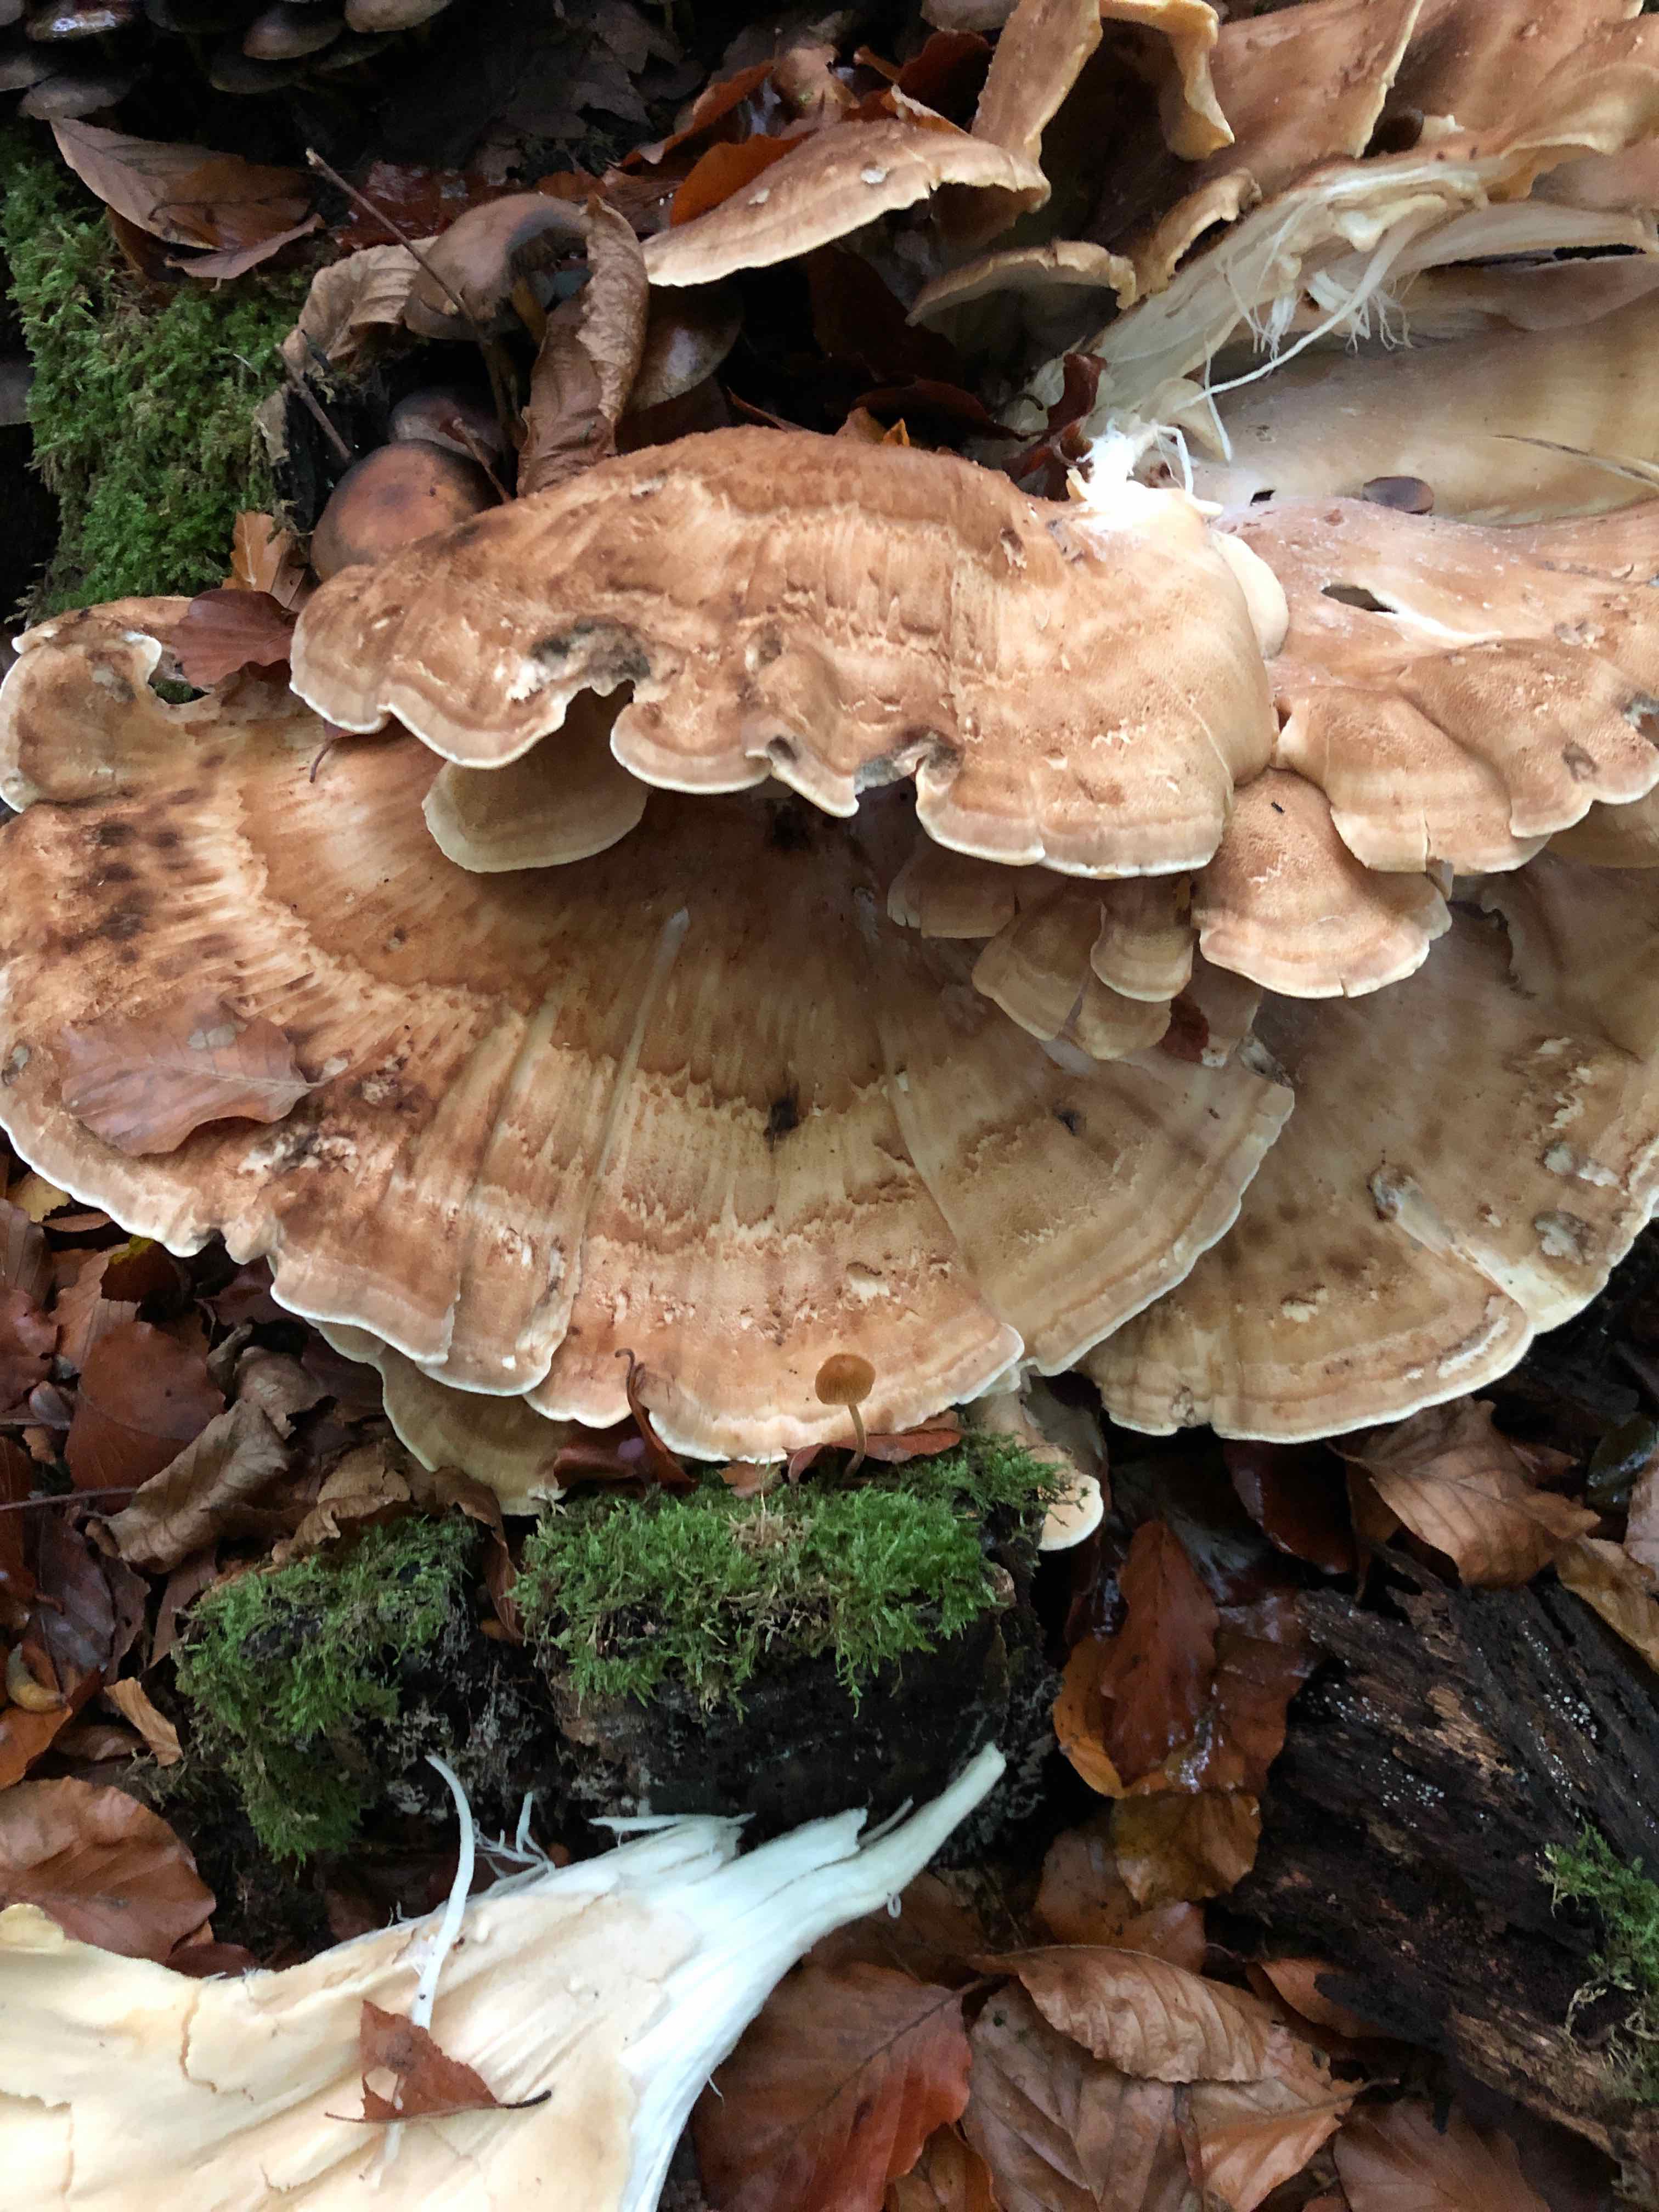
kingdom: Fungi
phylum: Basidiomycota
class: Agaricomycetes
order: Polyporales
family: Meripilaceae
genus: Meripilus
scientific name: Meripilus giganteus
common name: kæmpeporesvamp
